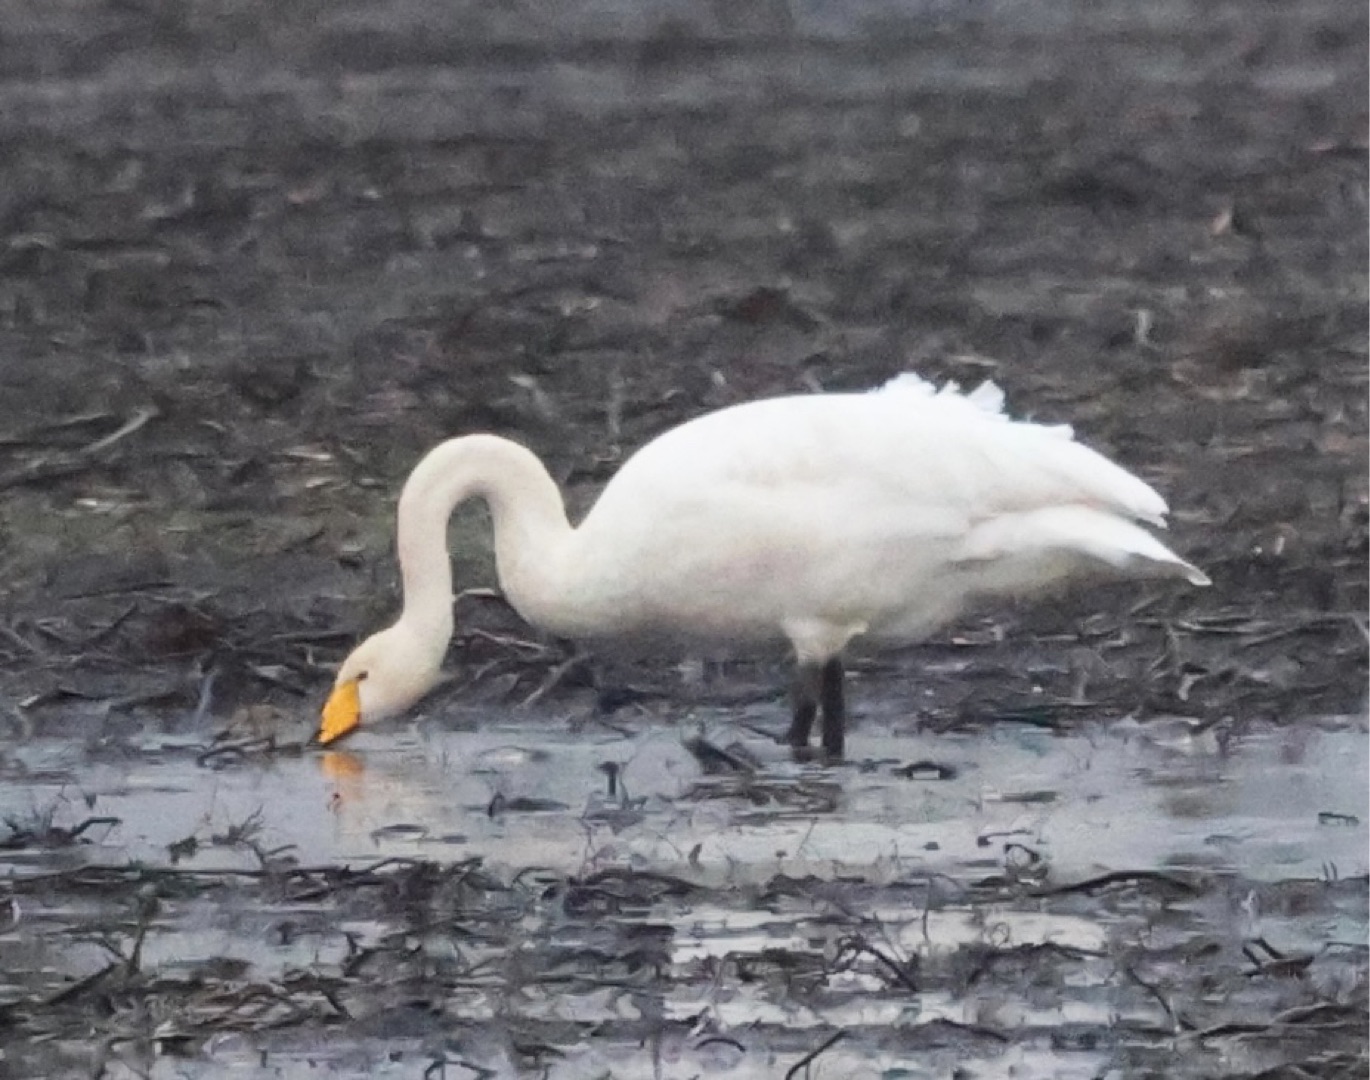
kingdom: Animalia
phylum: Chordata
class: Aves
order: Anseriformes
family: Anatidae
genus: Cygnus
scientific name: Cygnus cygnus
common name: Sangsvane
